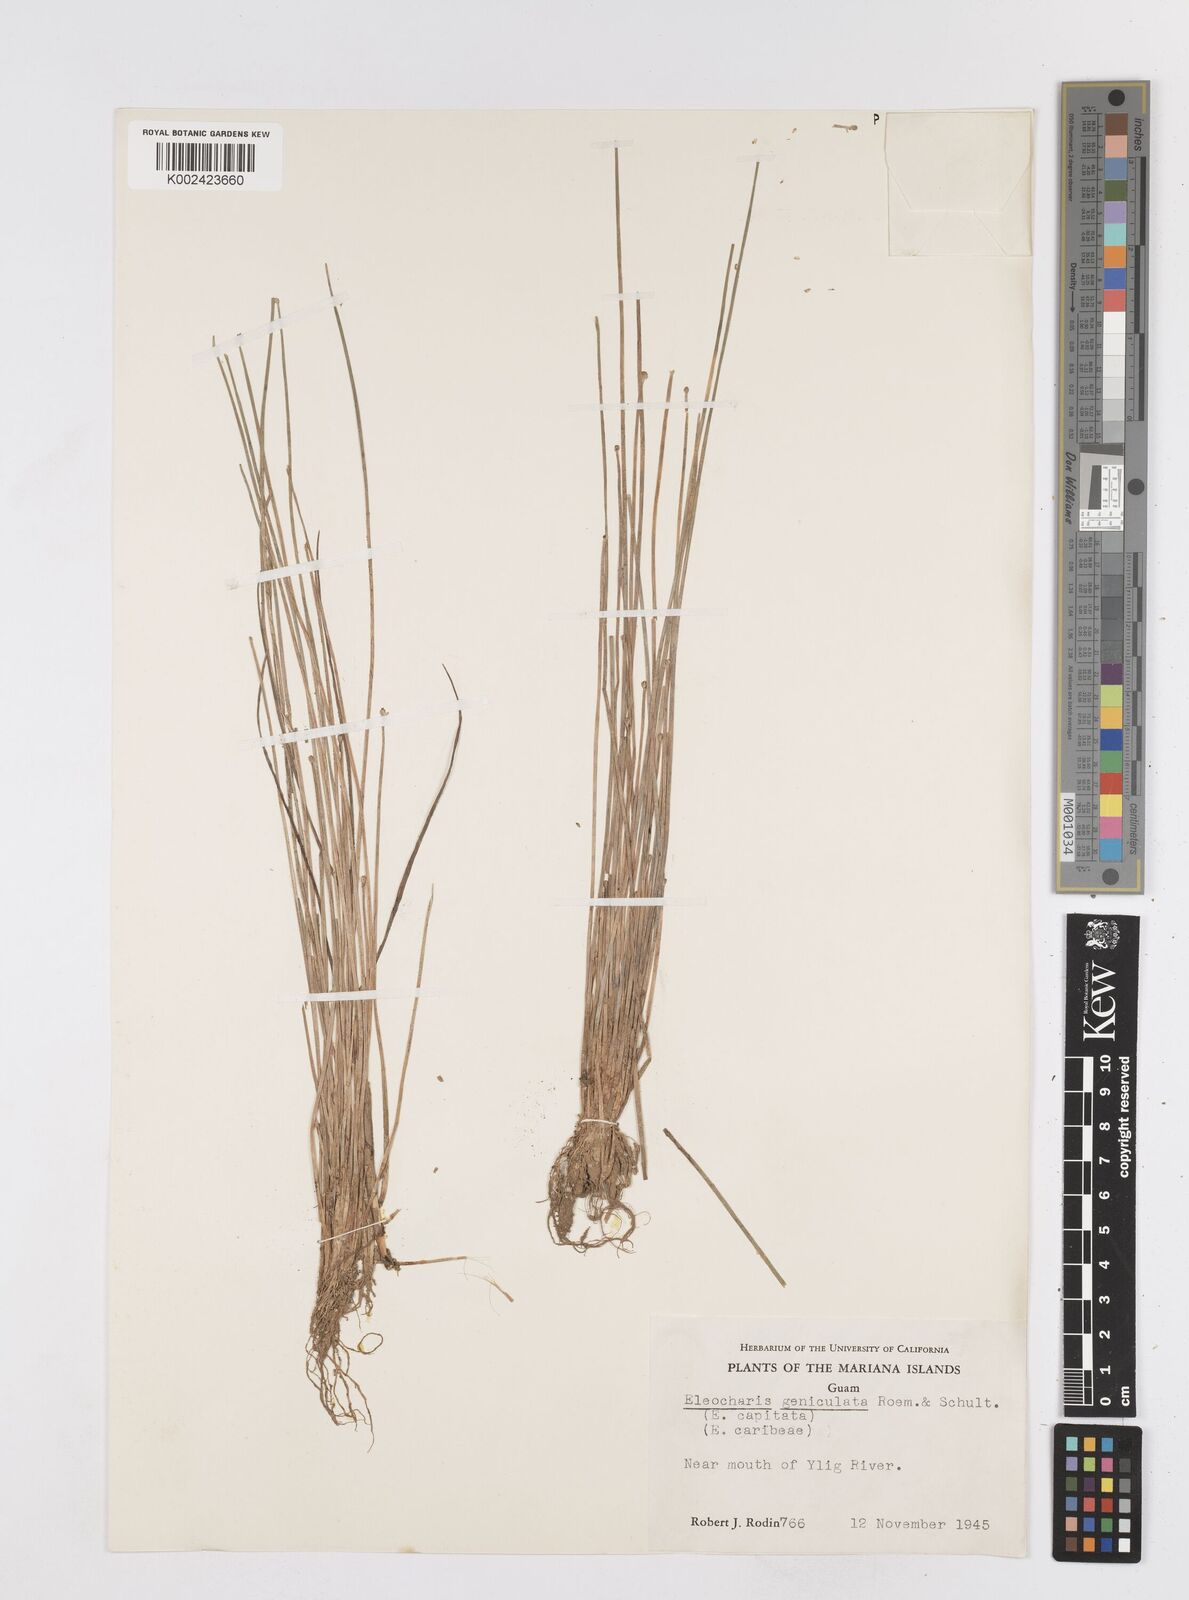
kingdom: Plantae
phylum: Tracheophyta
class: Liliopsida
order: Poales
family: Cyperaceae
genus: Eleocharis
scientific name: Eleocharis erythropoda
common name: Bald spikerush
